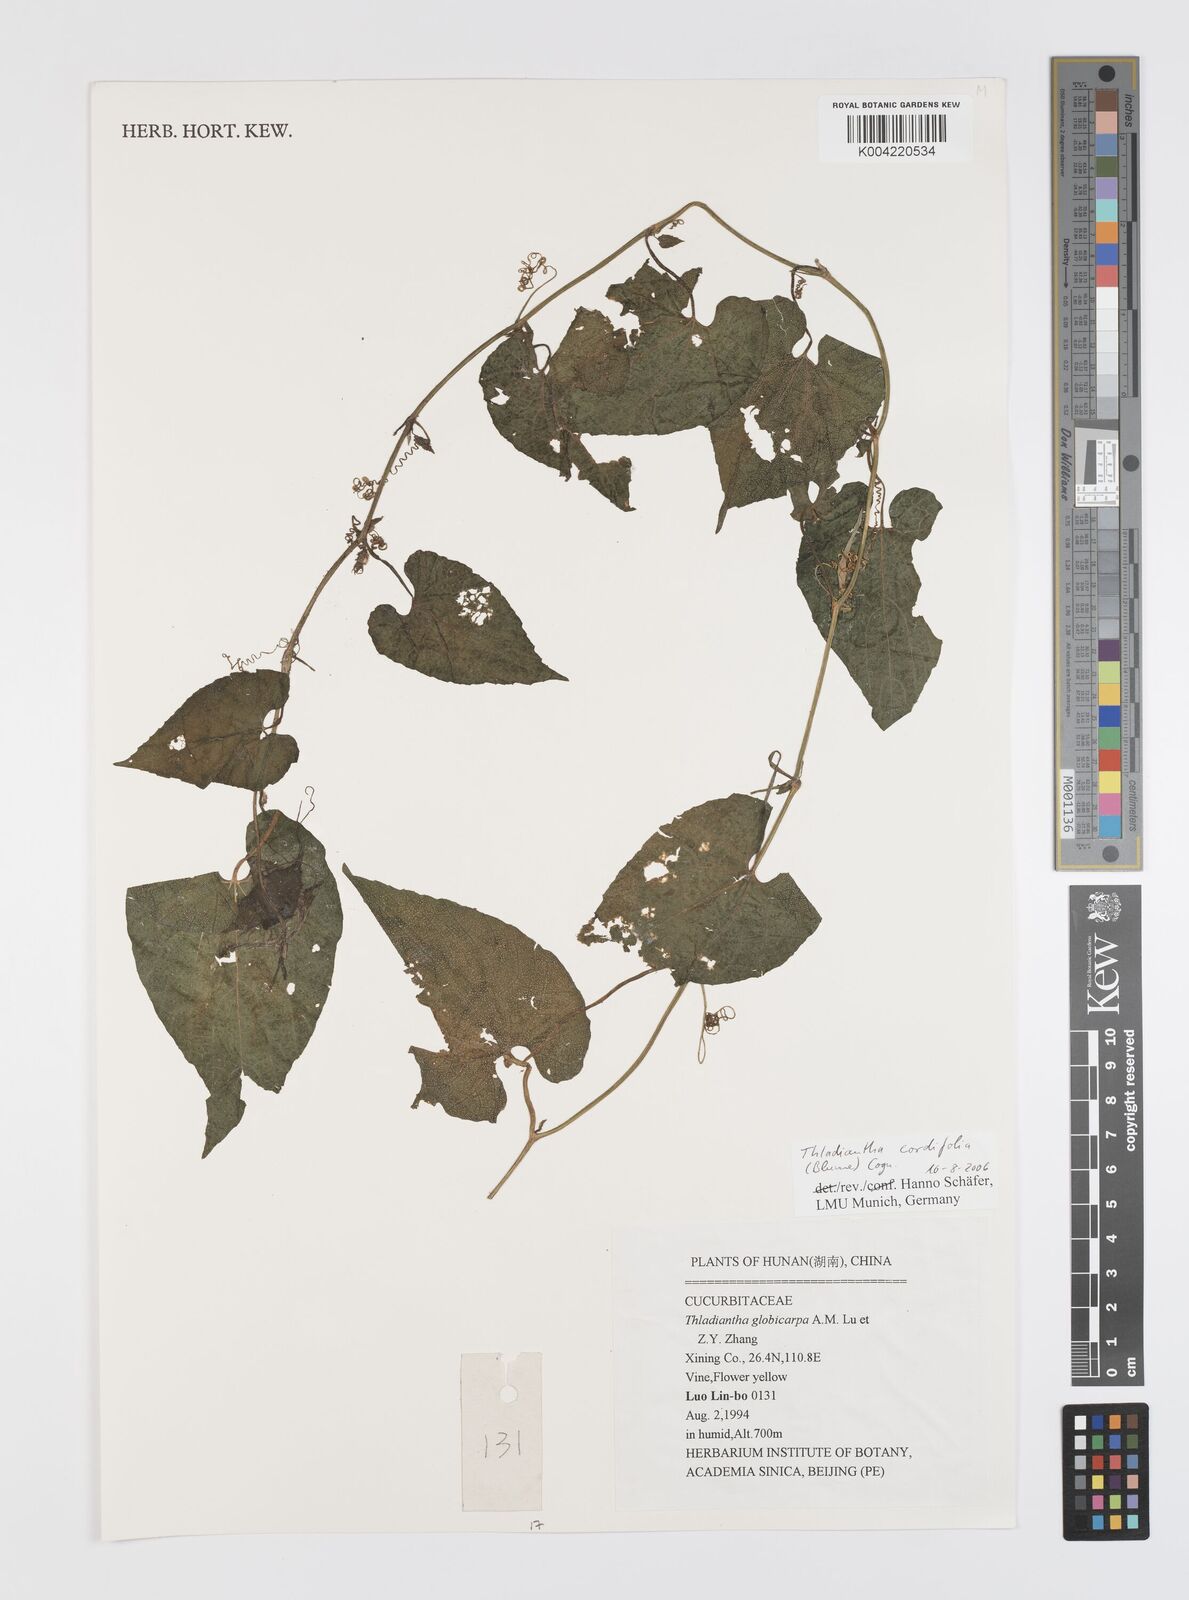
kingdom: Plantae
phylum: Tracheophyta
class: Magnoliopsida
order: Cucurbitales
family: Cucurbitaceae
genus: Thladiantha
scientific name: Thladiantha cordifolia
